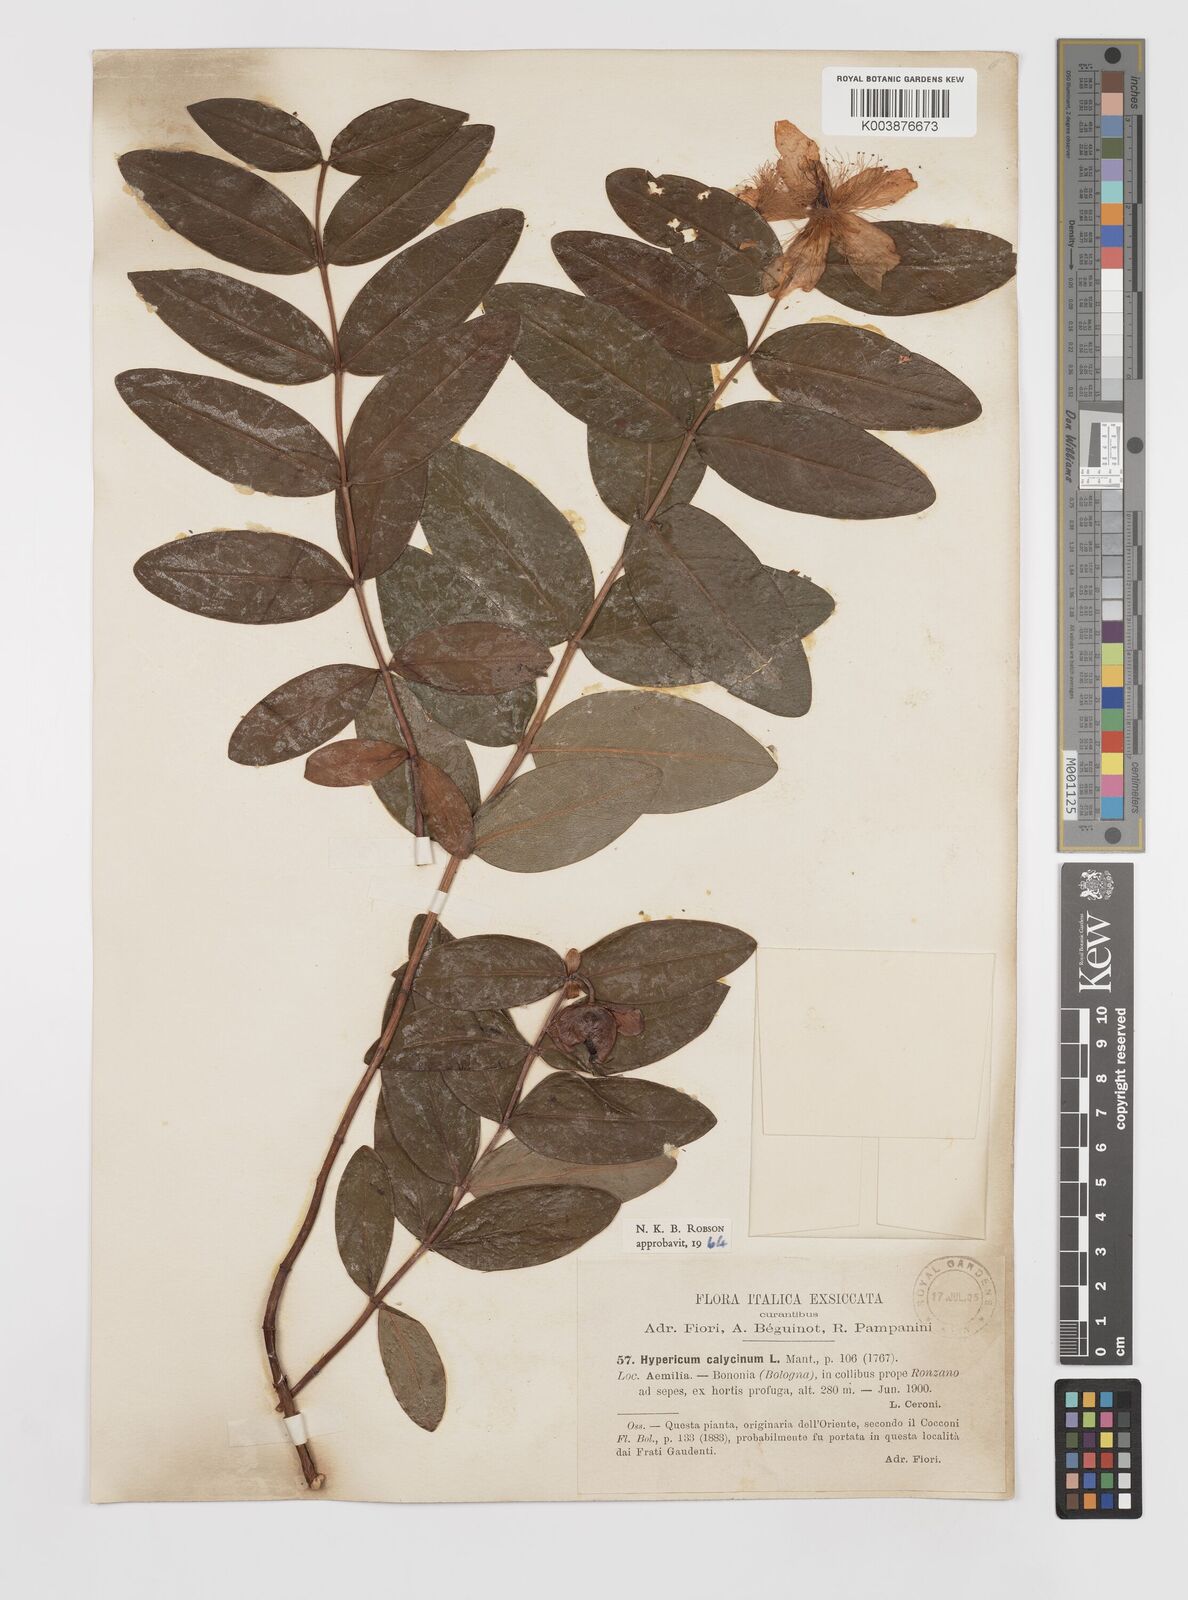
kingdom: Plantae
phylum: Tracheophyta
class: Magnoliopsida
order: Malpighiales
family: Hypericaceae
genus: Hypericum
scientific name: Hypericum calycinum
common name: Rose-of-sharon
